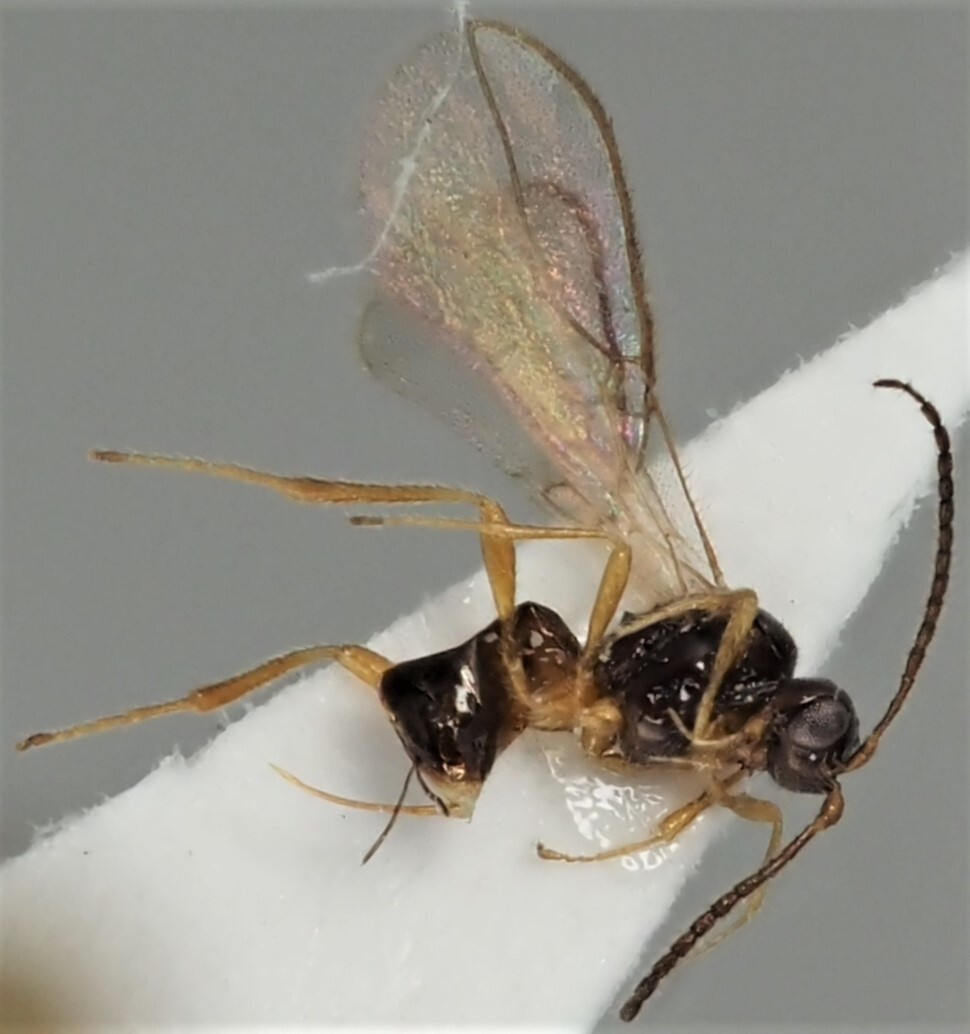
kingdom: Animalia
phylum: Arthropoda
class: Insecta
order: Hymenoptera
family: Braconidae
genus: Dinotrema
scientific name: Dinotrema oxybelum
